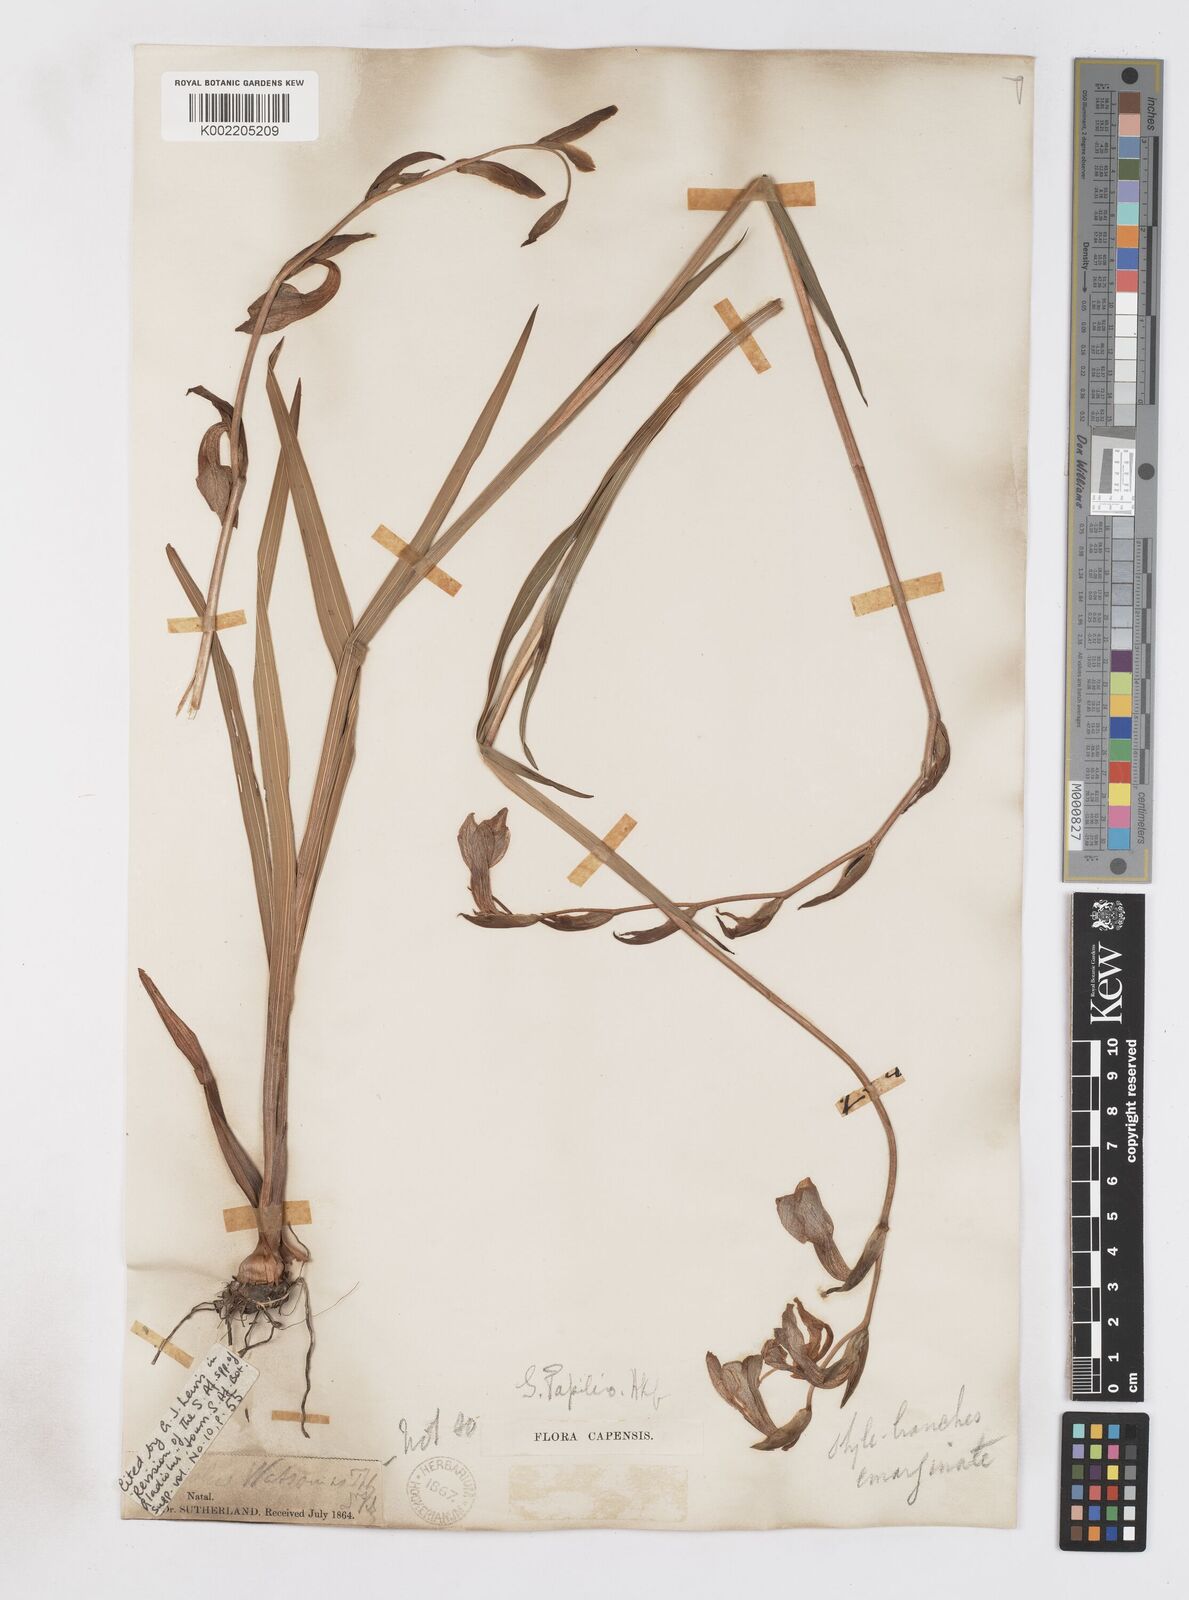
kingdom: Plantae
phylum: Tracheophyta
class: Liliopsida
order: Asparagales
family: Iridaceae
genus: Gladiolus
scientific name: Gladiolus papilio
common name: Goldblotch gladiolus
